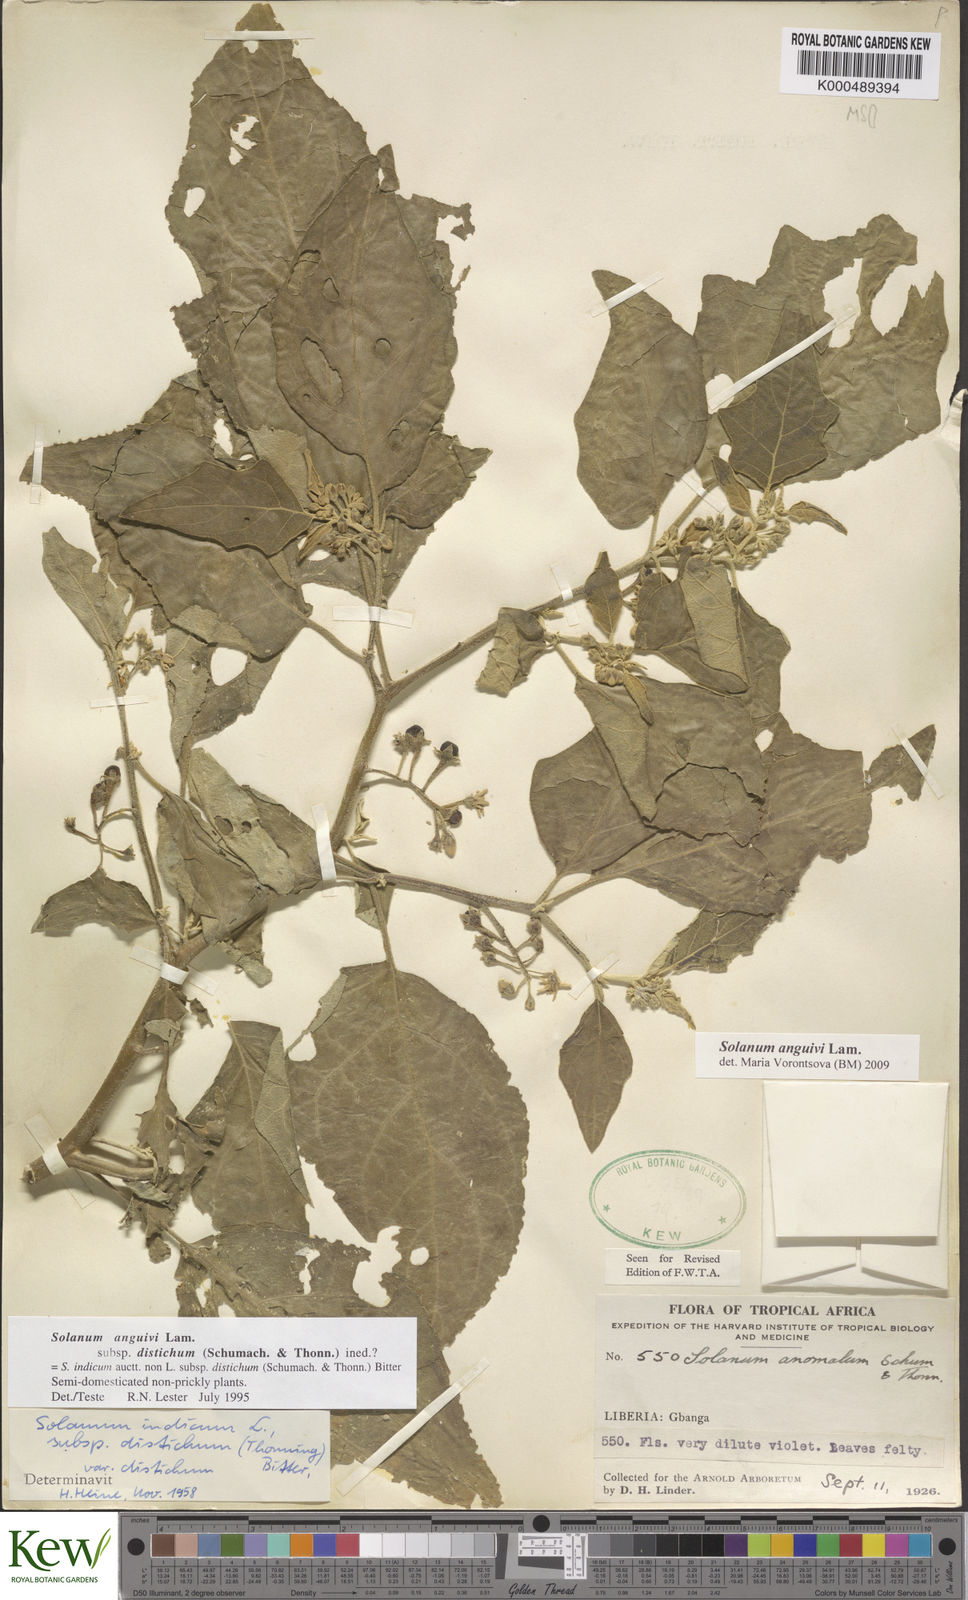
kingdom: Plantae
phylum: Tracheophyta
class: Magnoliopsida
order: Solanales
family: Solanaceae
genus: Solanum
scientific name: Solanum anguivi
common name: Forest bitterberry
